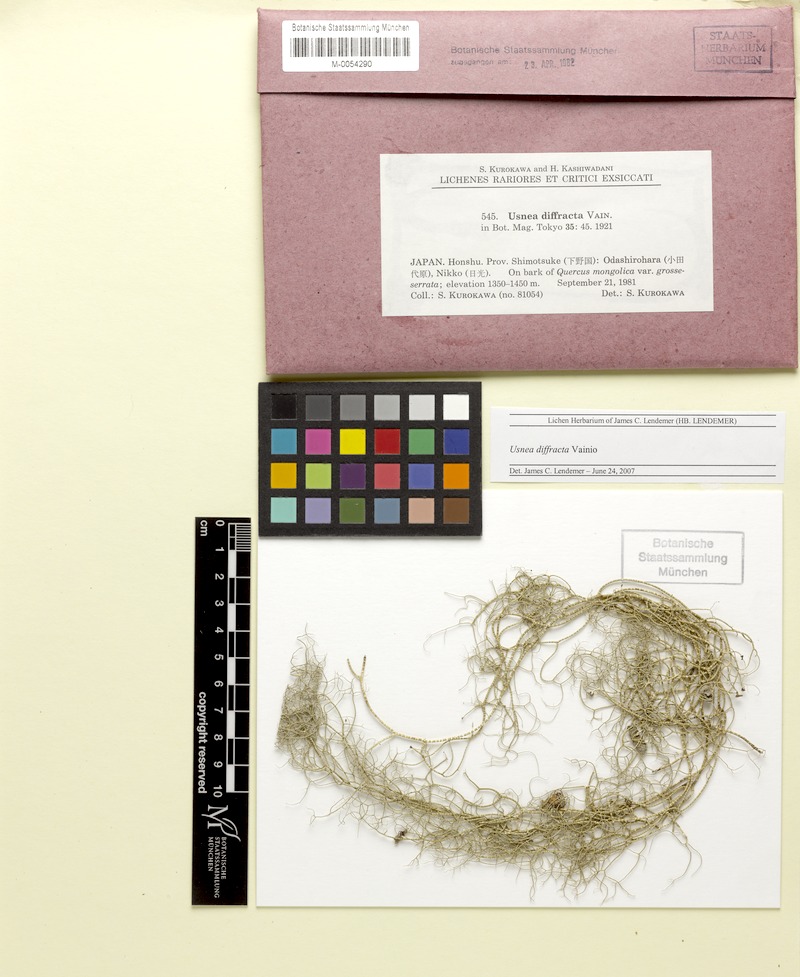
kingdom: Fungi
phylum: Ascomycota
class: Lecanoromycetes
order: Lecanorales
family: Parmeliaceae
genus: Dolichousnea
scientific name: Dolichousnea diffracta
